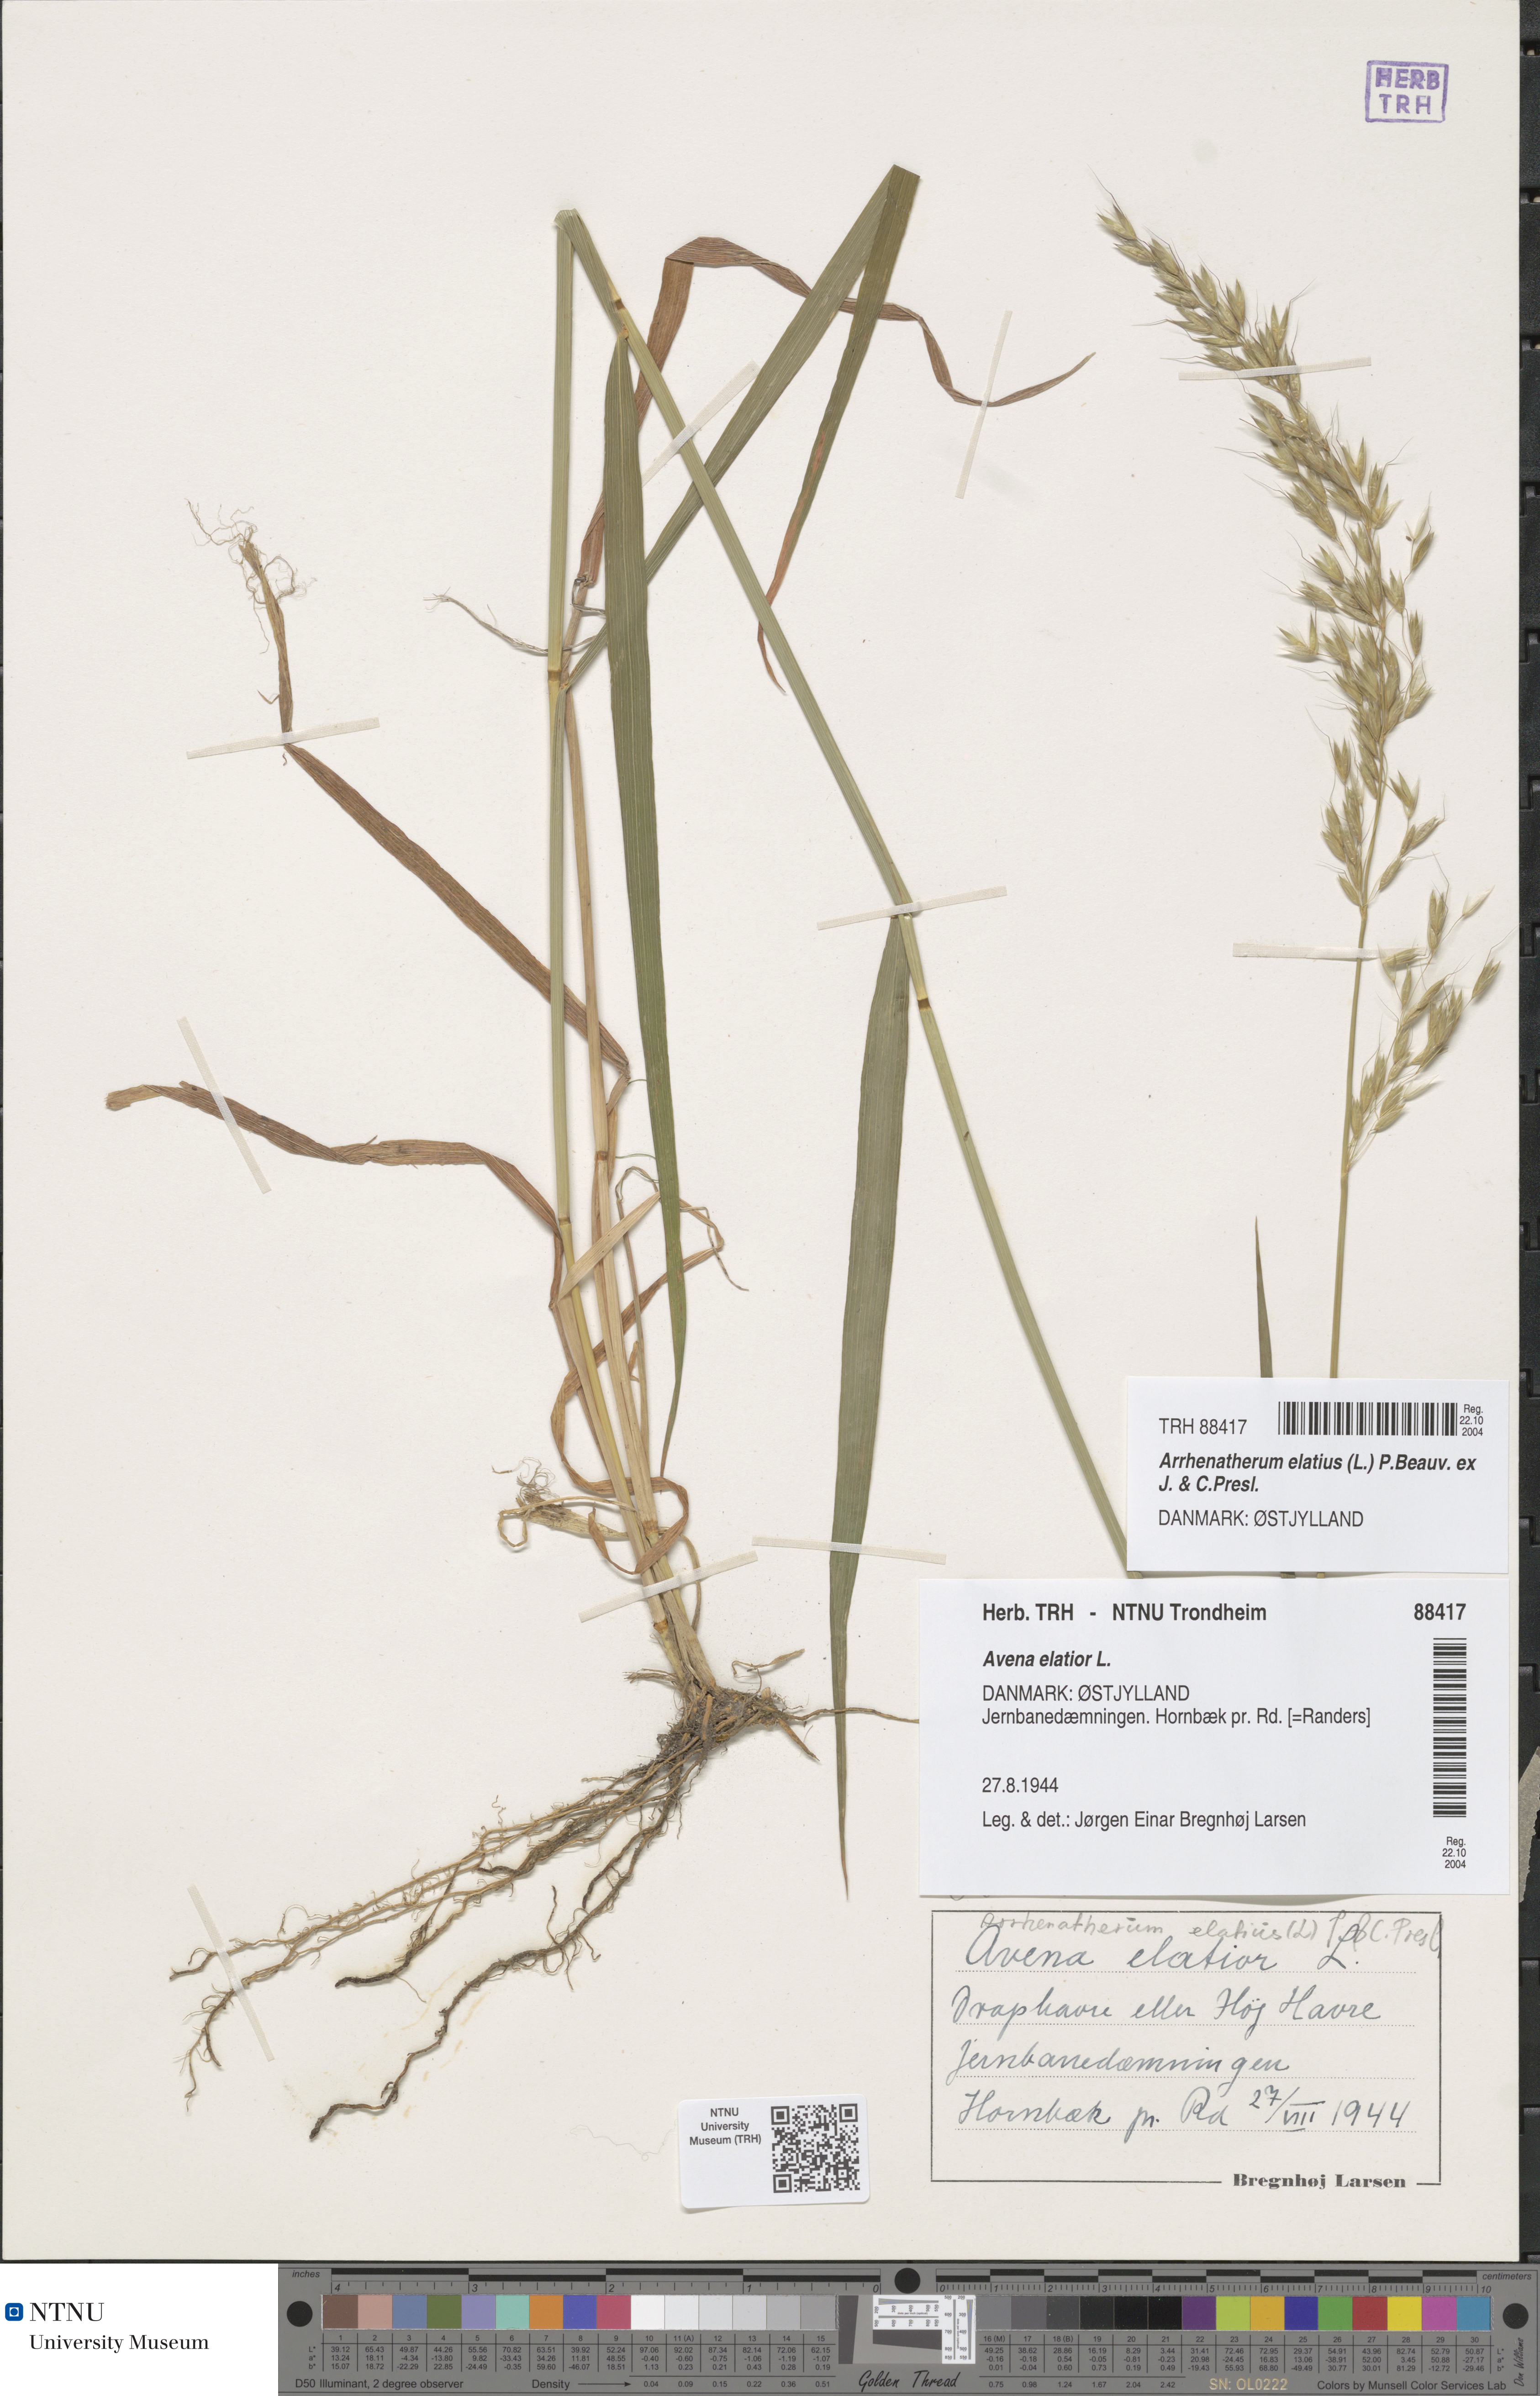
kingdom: Plantae
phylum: Tracheophyta
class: Liliopsida
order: Poales
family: Poaceae
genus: Arrhenatherum
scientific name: Arrhenatherum elatius
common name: Tall oatgrass
